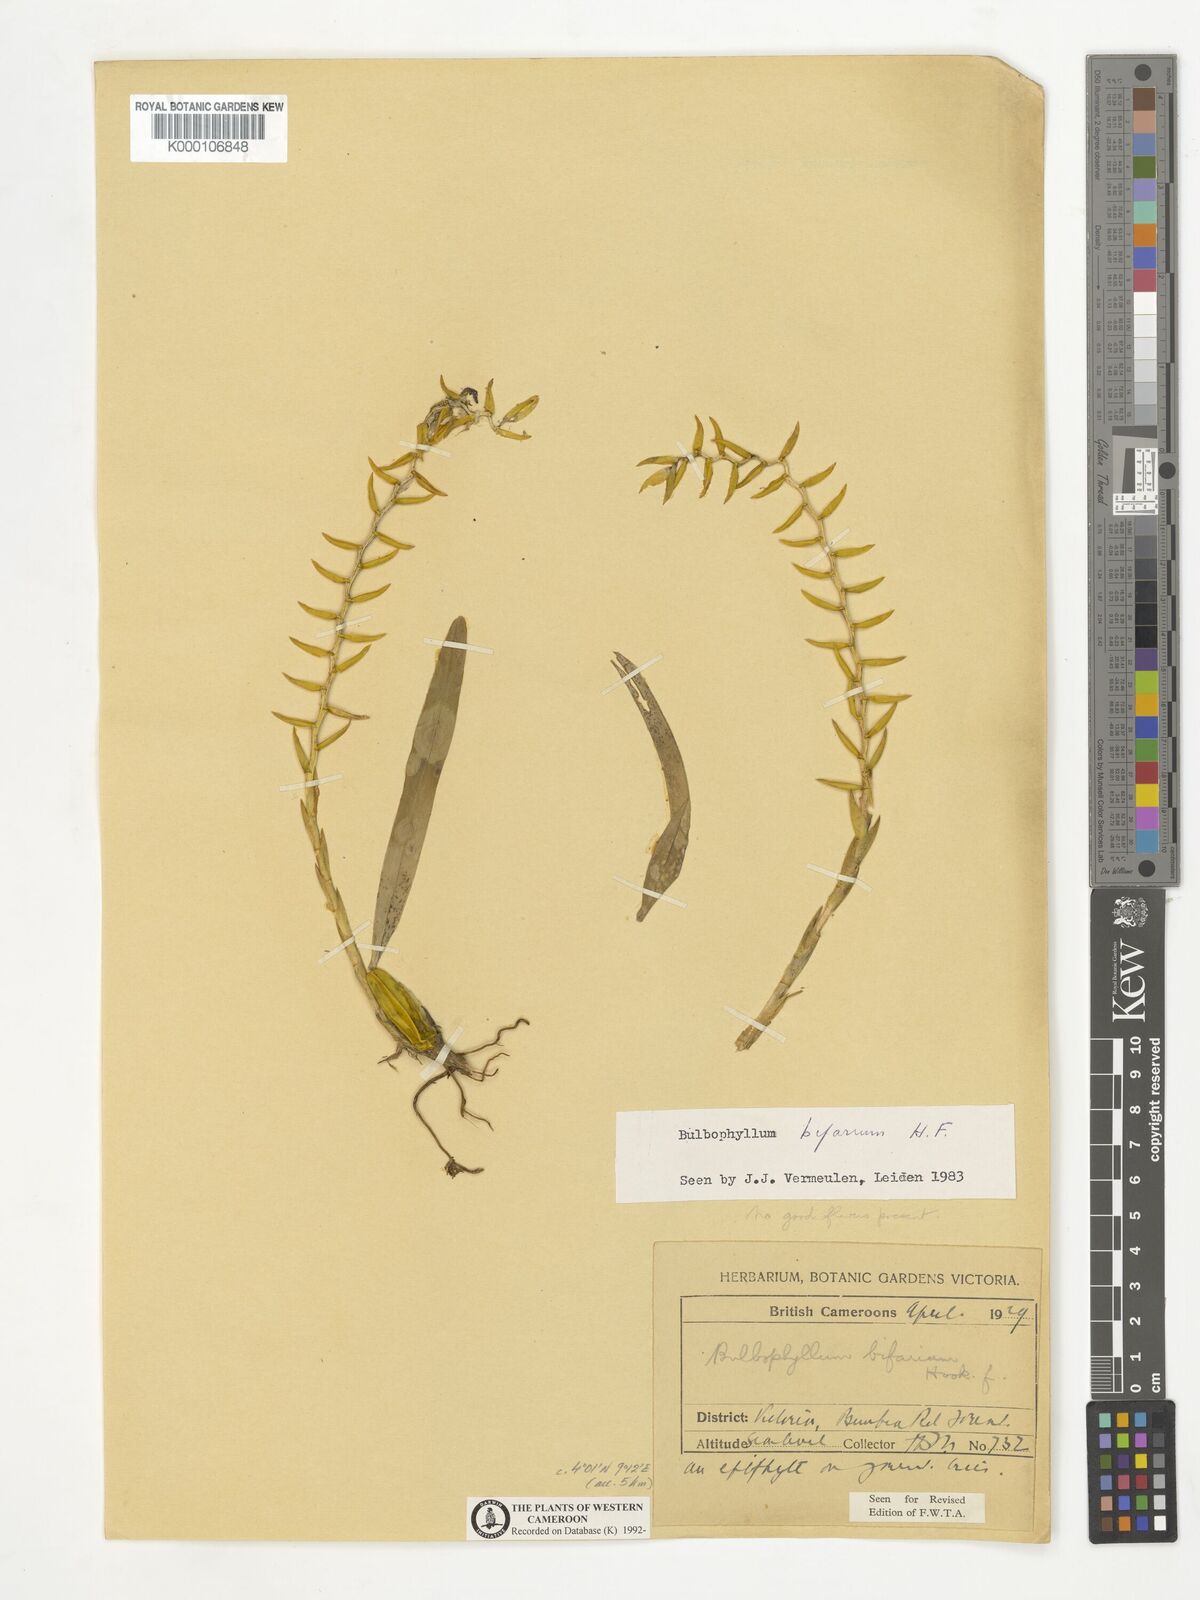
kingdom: Plantae
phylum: Tracheophyta
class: Liliopsida
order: Asparagales
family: Orchidaceae
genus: Bulbophyllum
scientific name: Bulbophyllum bifarium
